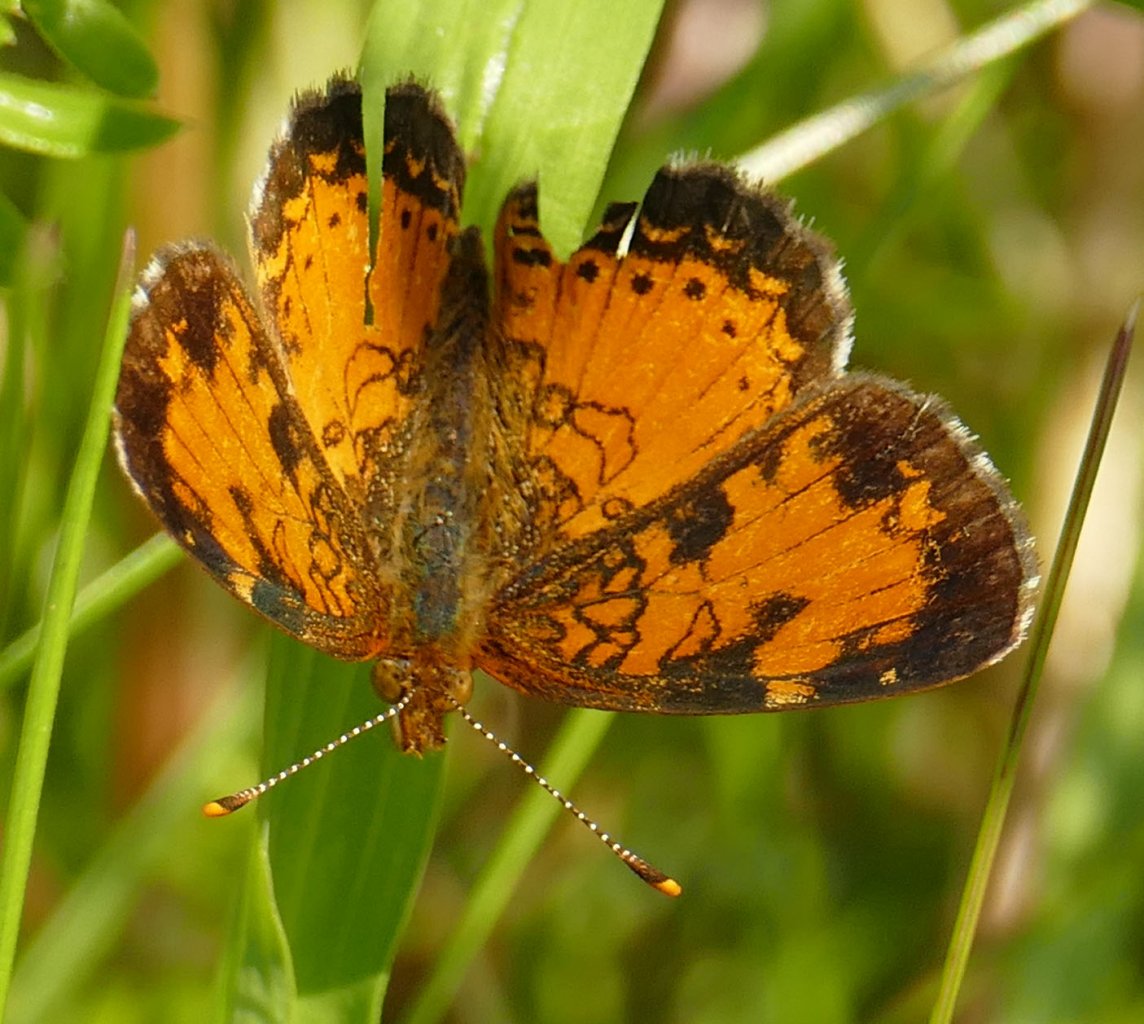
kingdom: Animalia
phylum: Arthropoda
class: Insecta
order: Lepidoptera
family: Nymphalidae
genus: Phyciodes
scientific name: Phyciodes tharos
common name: Northern Crescent
